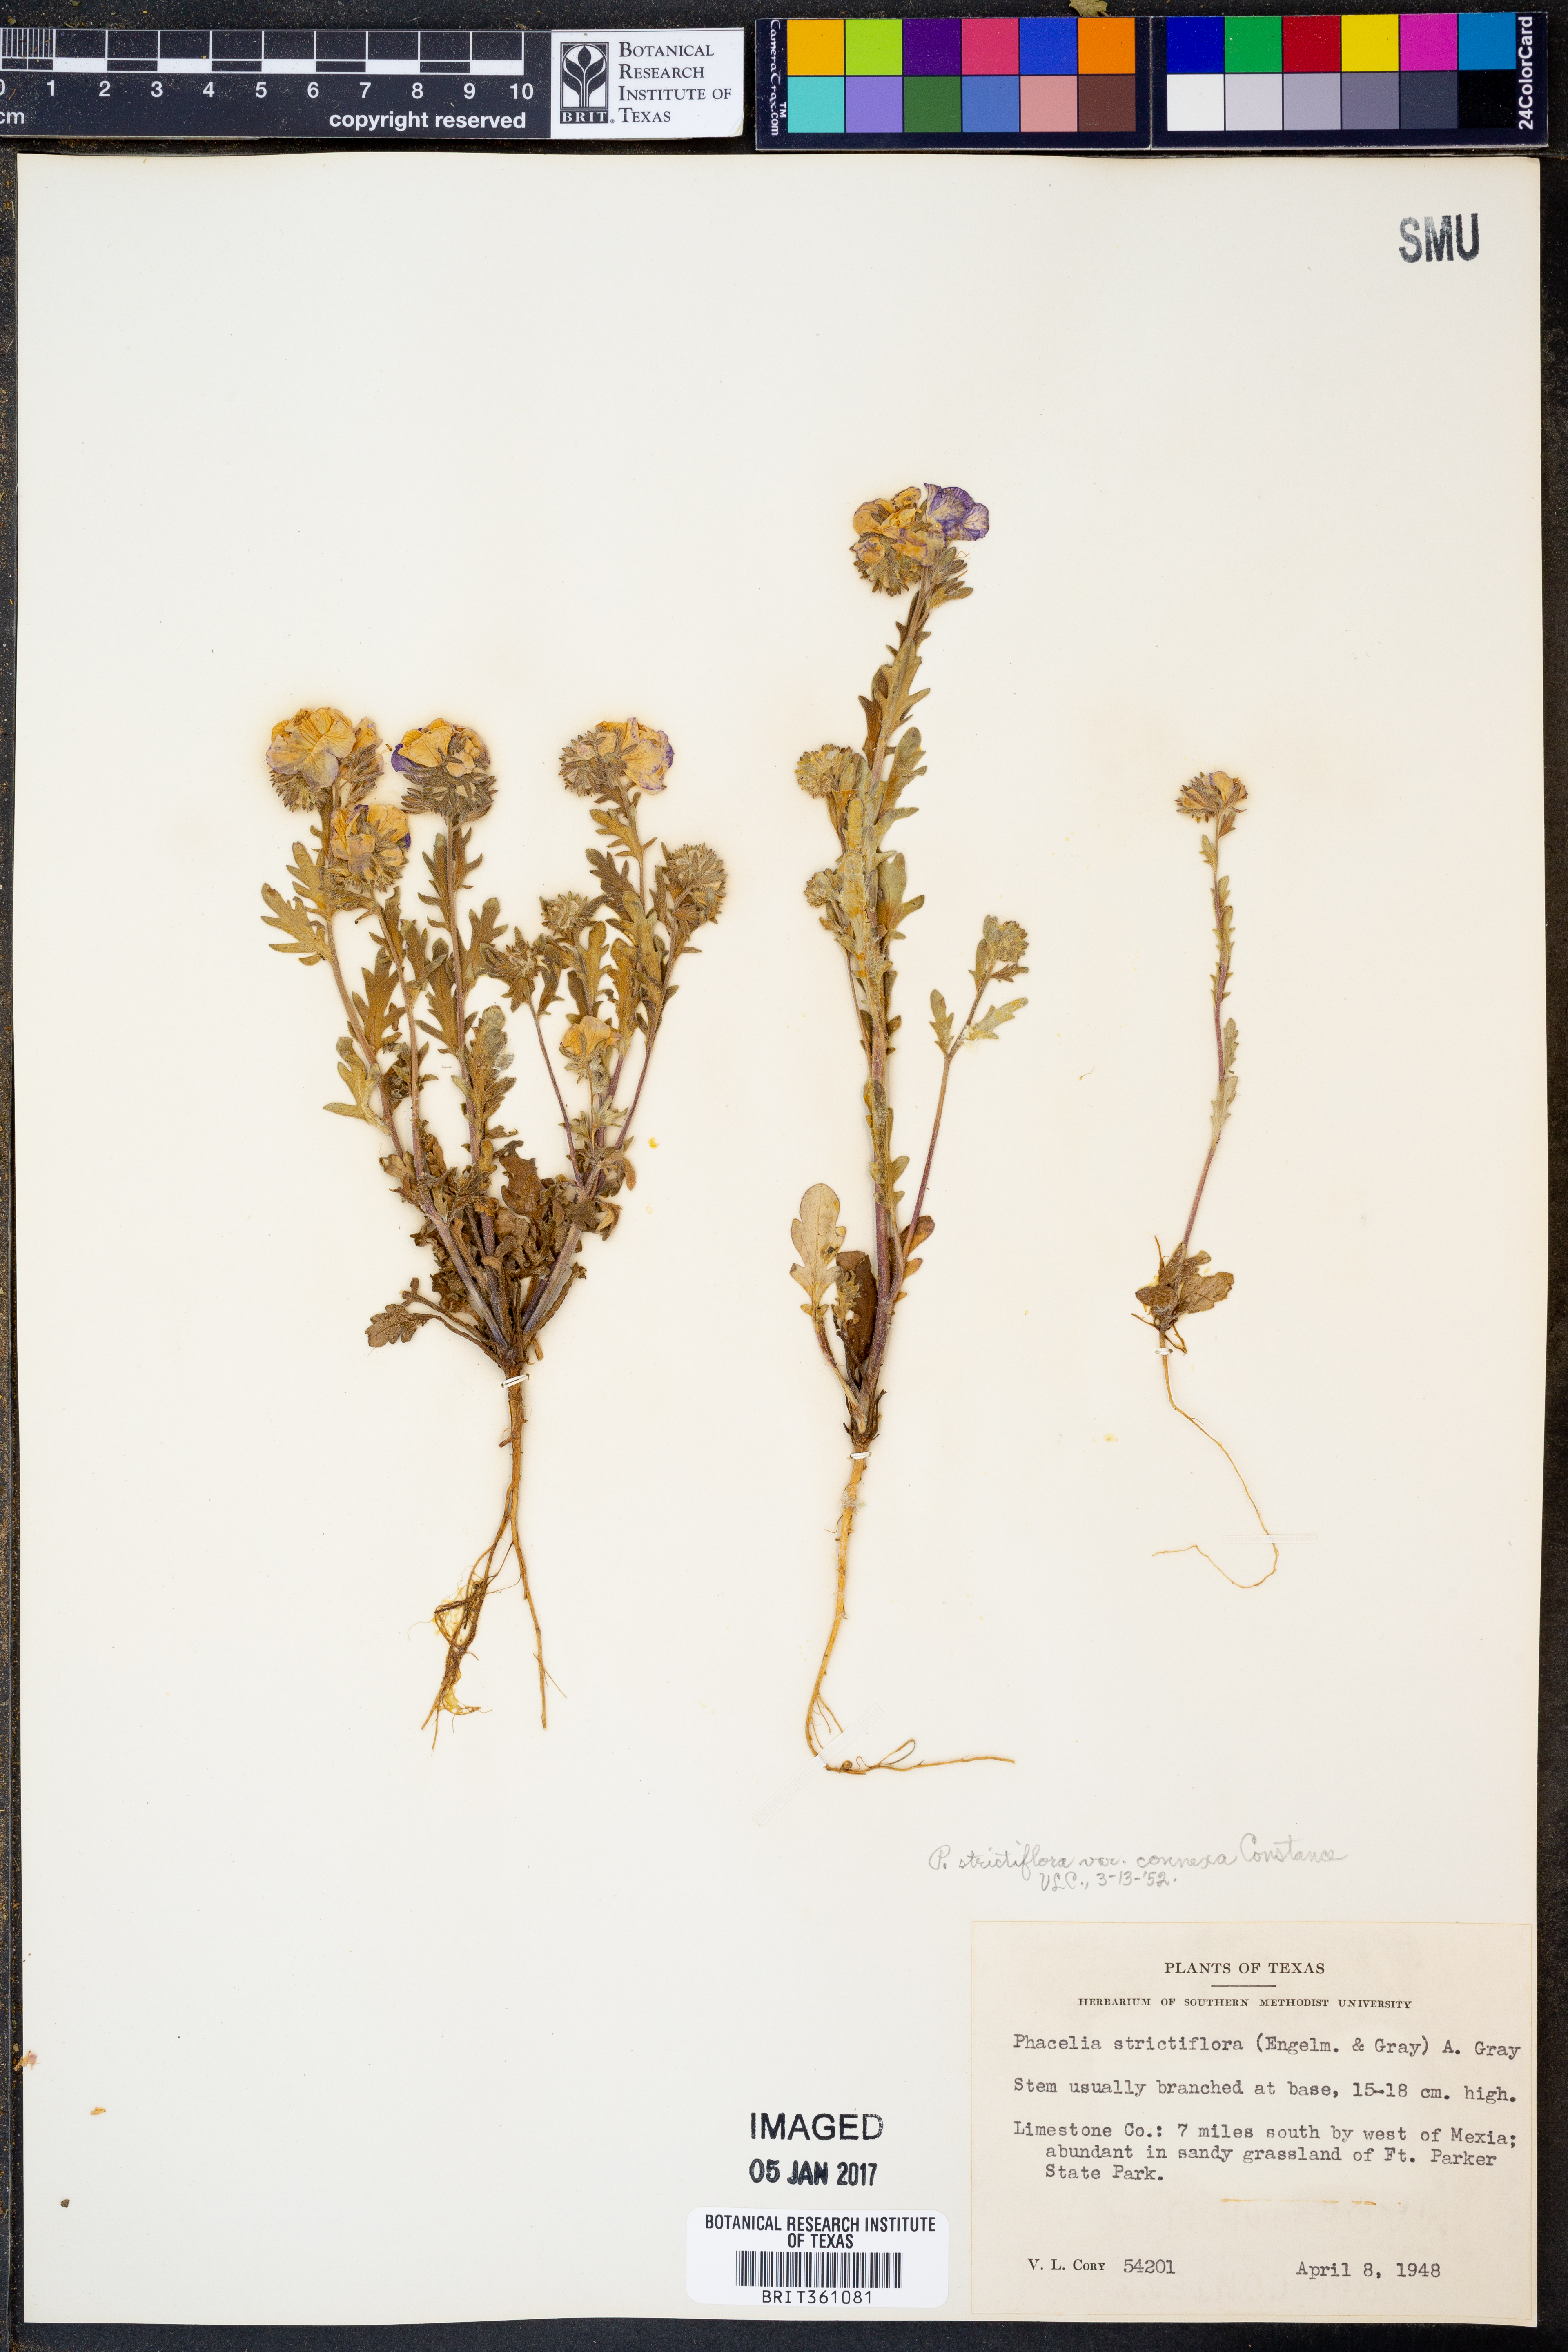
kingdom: Plantae
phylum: Tracheophyta
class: Magnoliopsida
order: Boraginales
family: Hydrophyllaceae
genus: Phacelia
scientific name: Phacelia strictiflora
